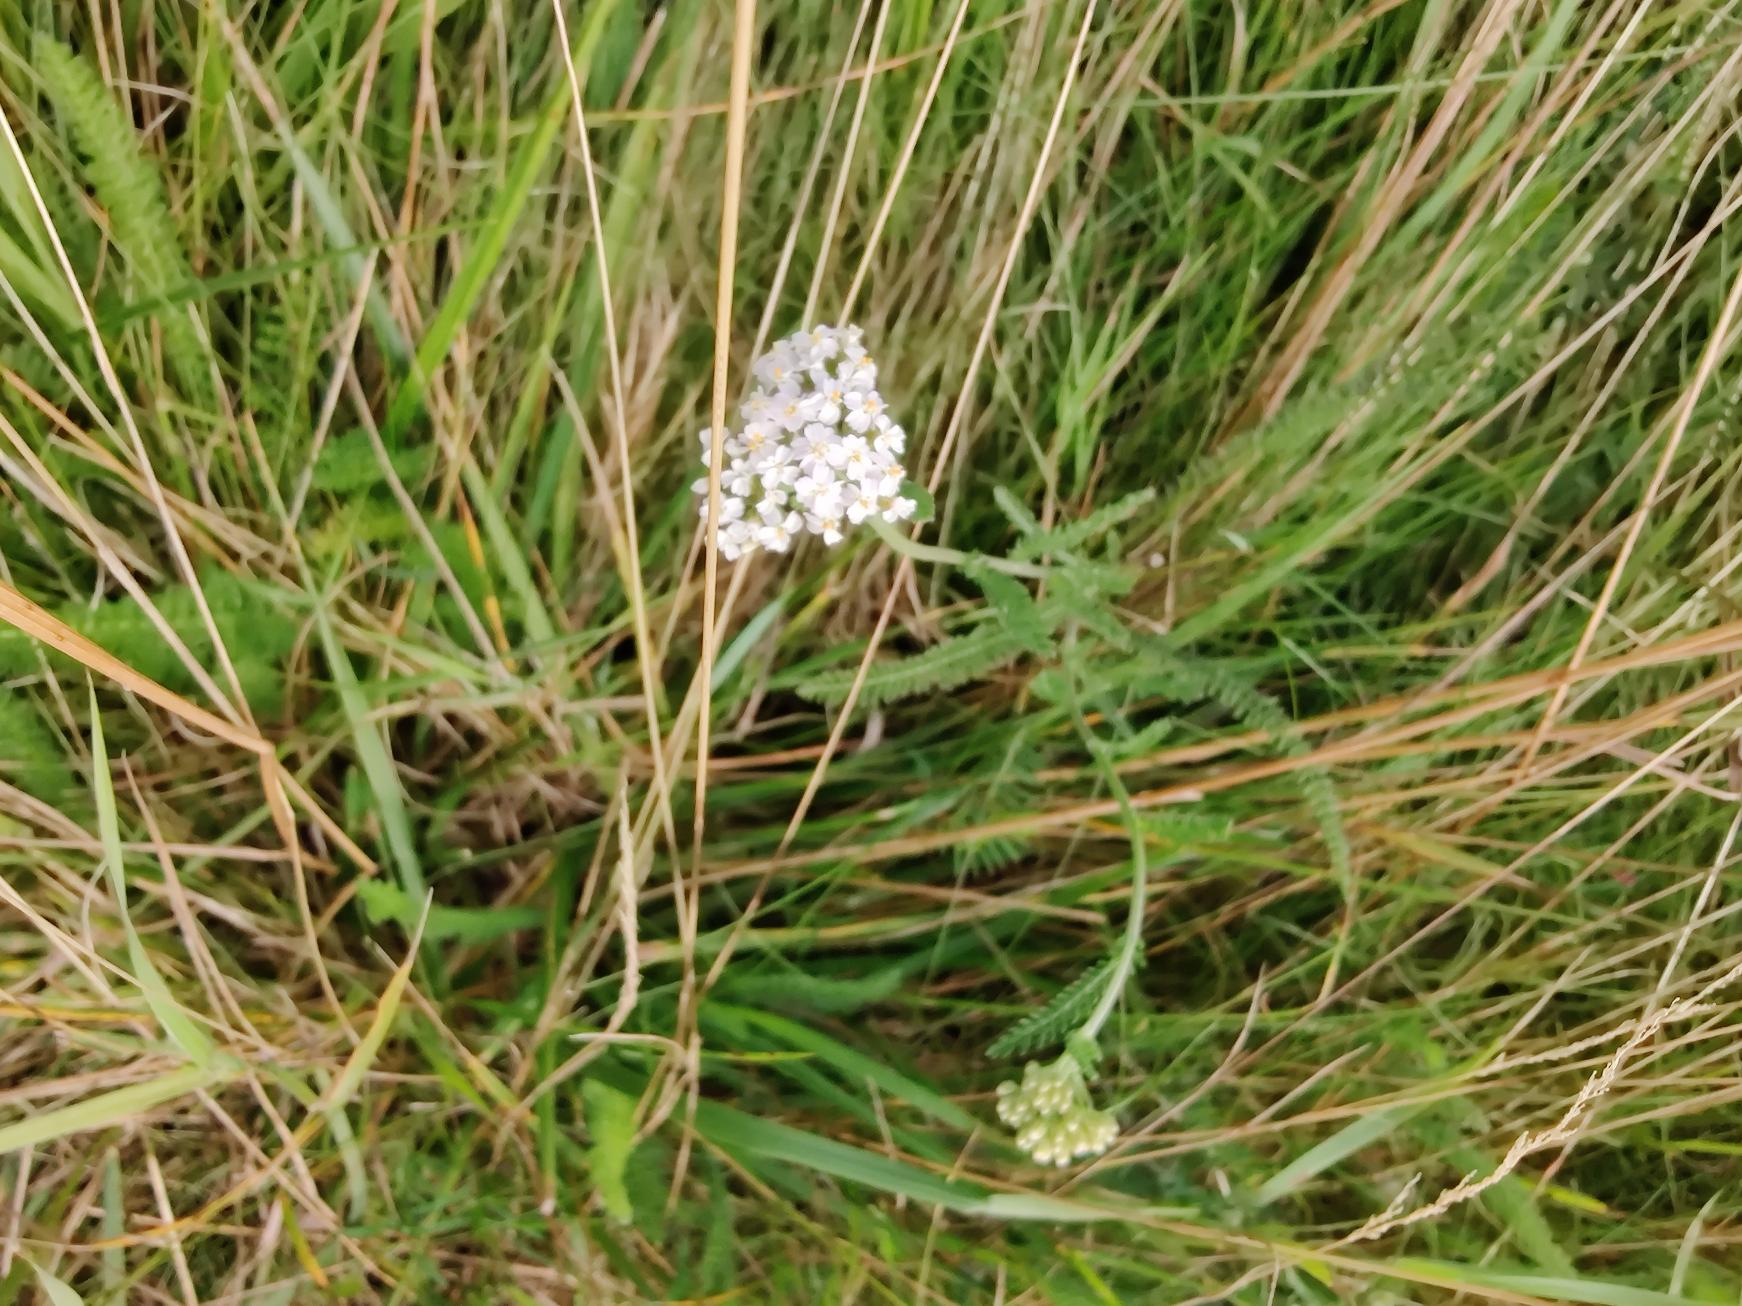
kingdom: Plantae
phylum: Tracheophyta
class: Magnoliopsida
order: Asterales
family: Asteraceae
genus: Achillea
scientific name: Achillea millefolium
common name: Almindelig røllike
